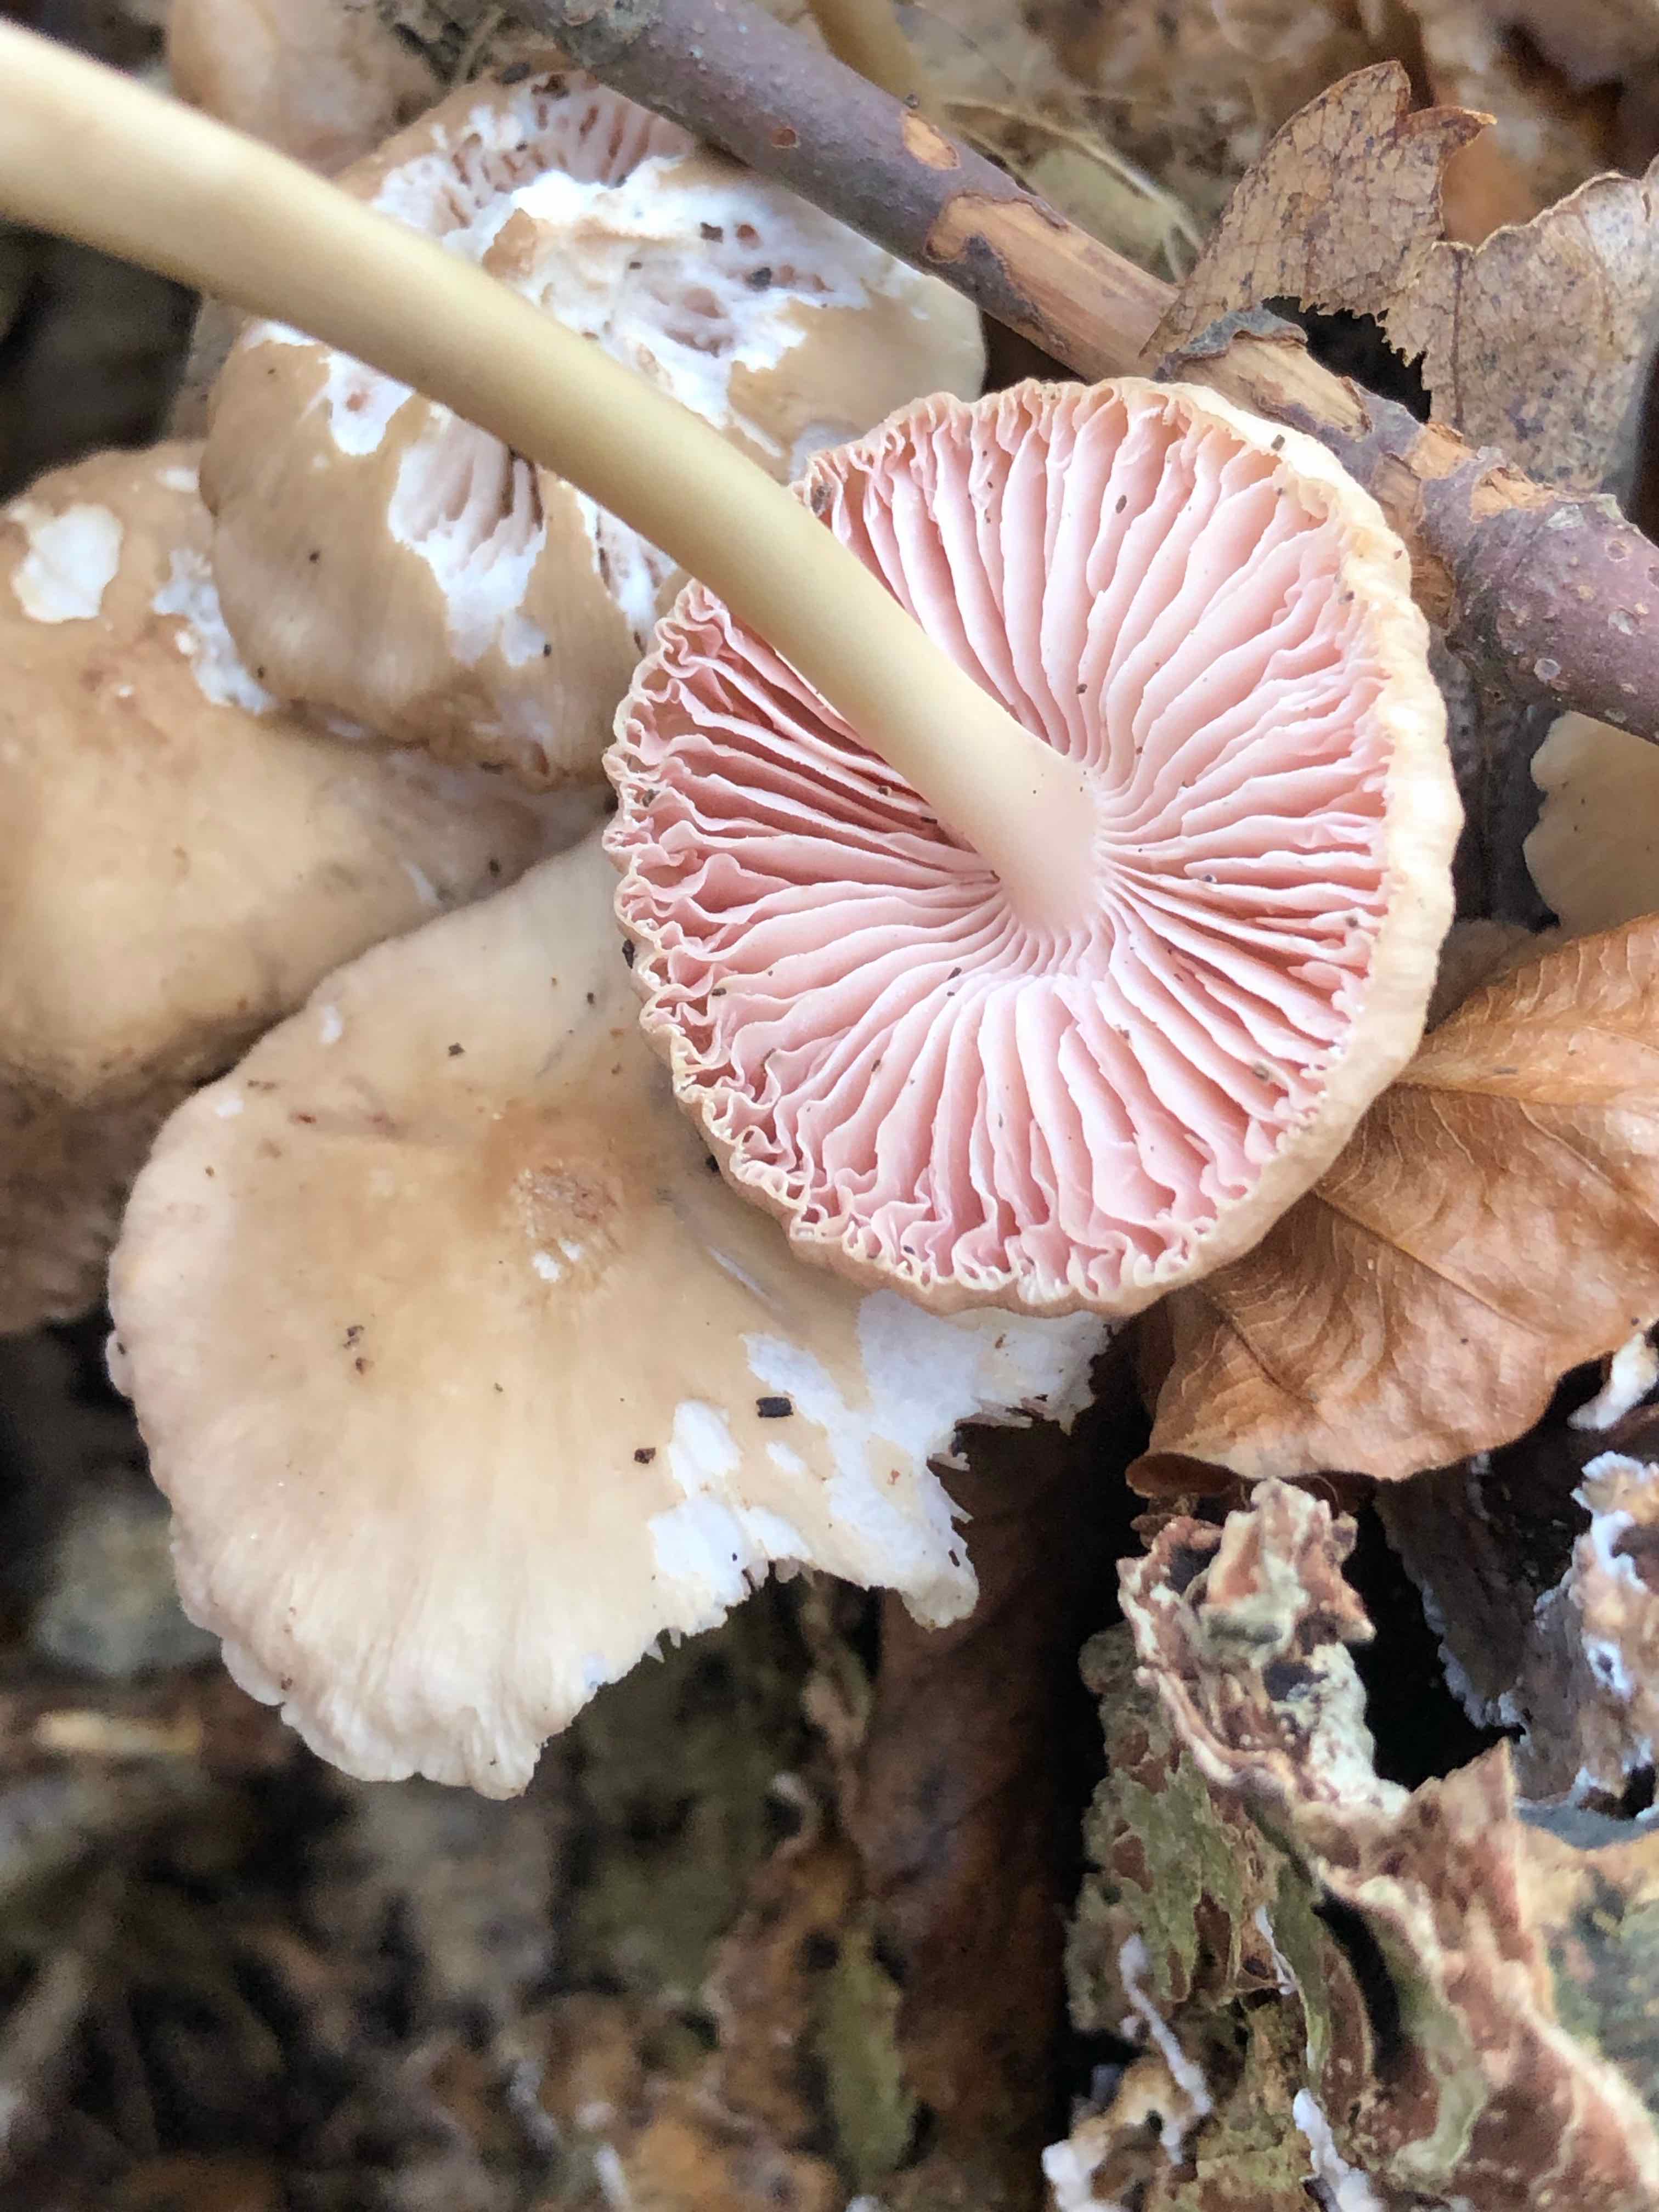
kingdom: Fungi
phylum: Basidiomycota
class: Agaricomycetes
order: Agaricales
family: Mycenaceae
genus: Mycena
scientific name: Mycena galericulata
